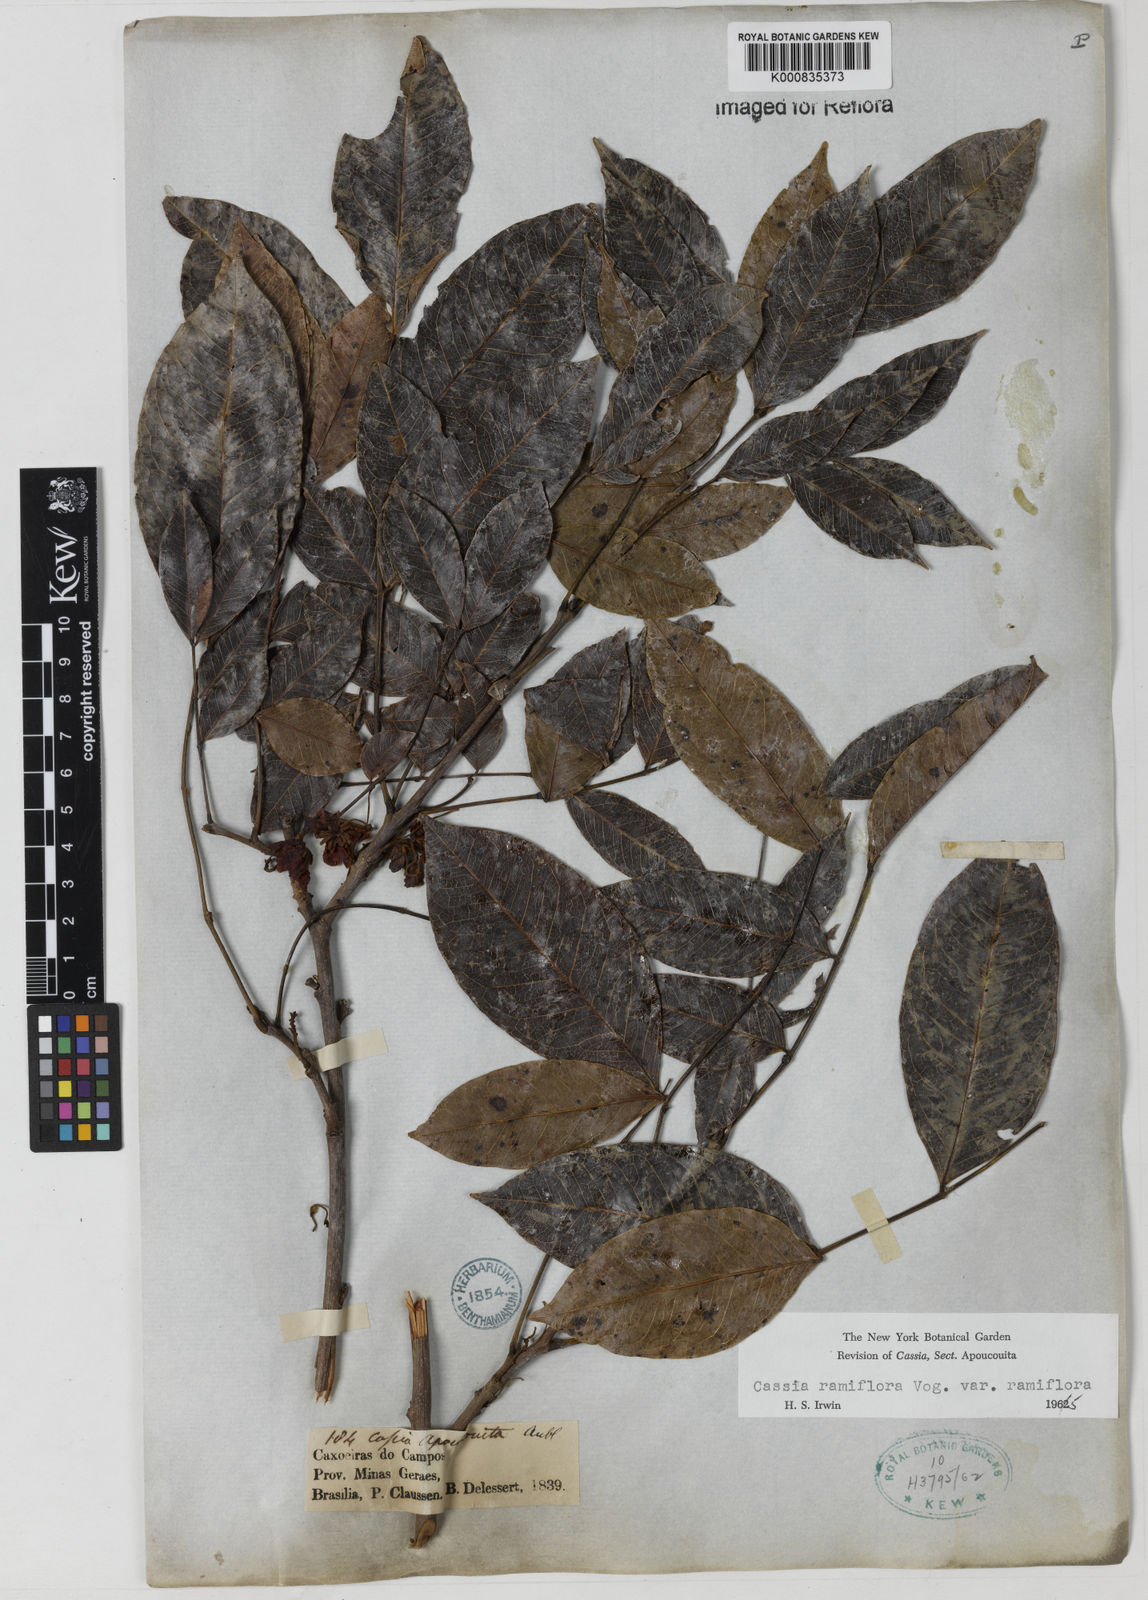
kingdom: Plantae
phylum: Tracheophyta
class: Magnoliopsida
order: Fabales
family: Fabaceae
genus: Chamaecrista
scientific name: Chamaecrista ensiformis
